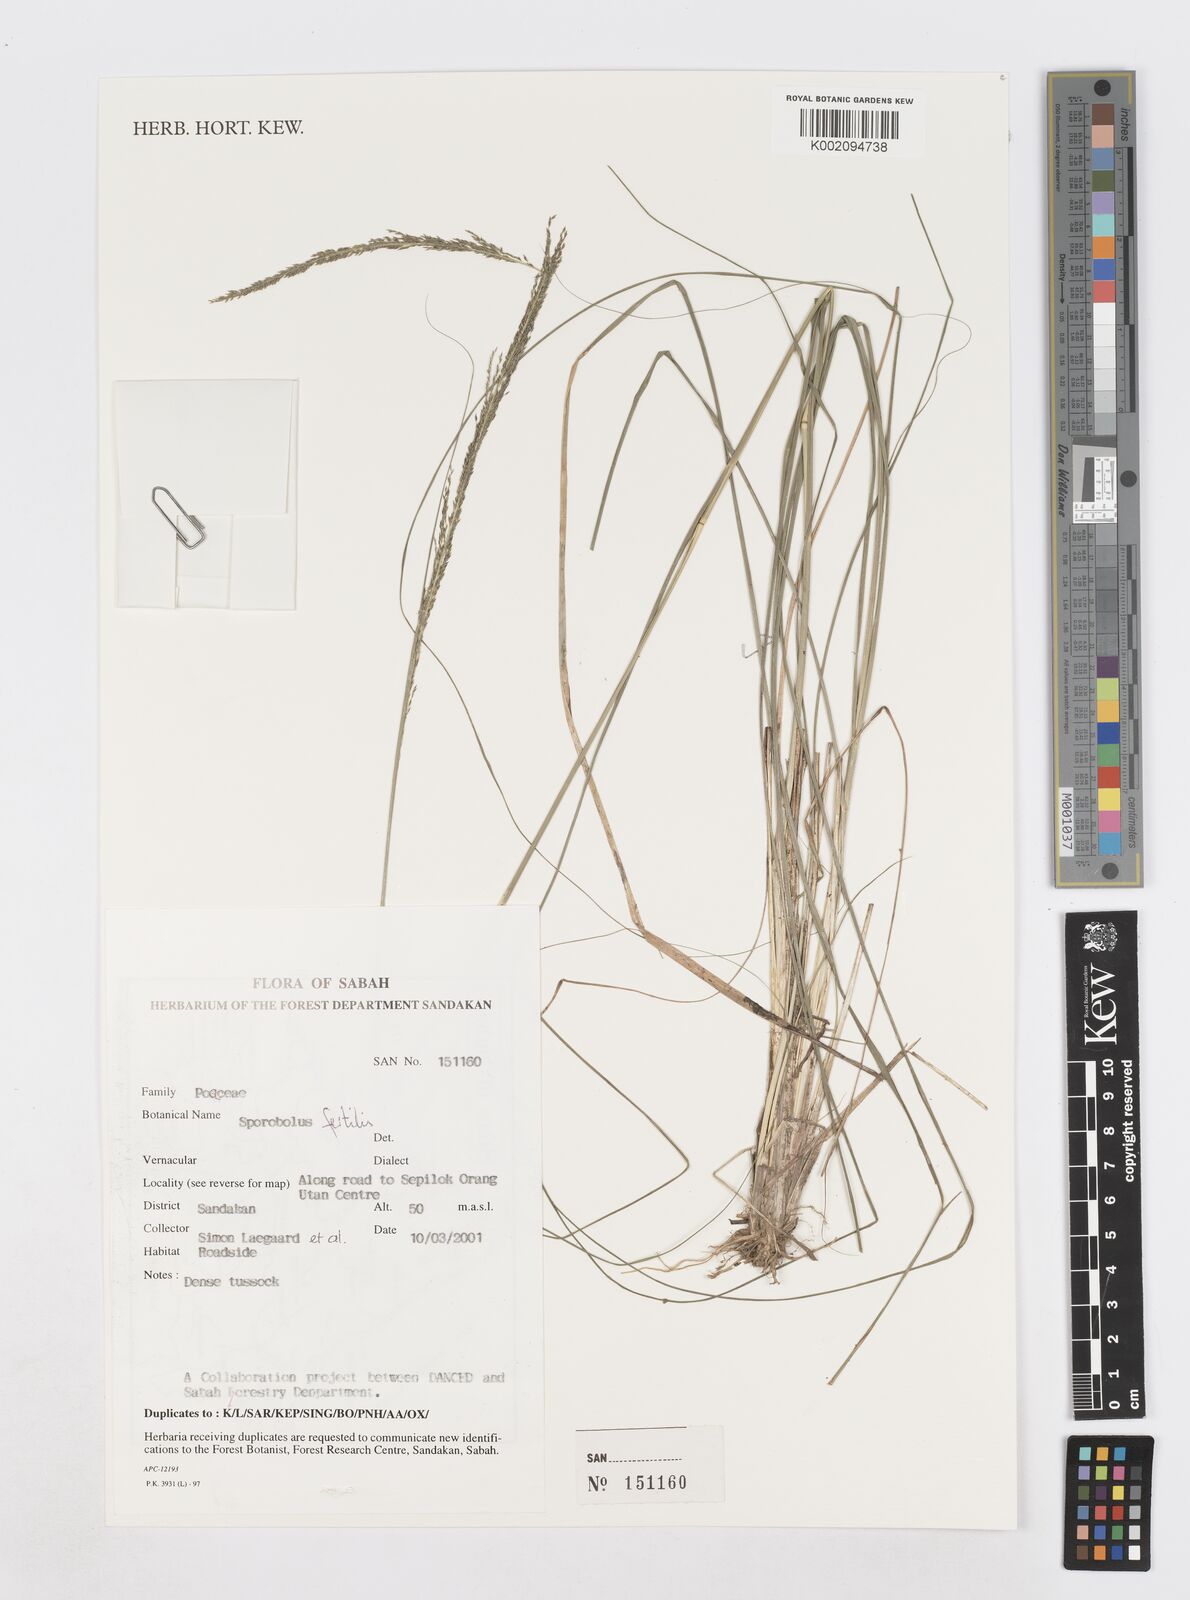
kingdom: Plantae
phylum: Tracheophyta
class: Liliopsida
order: Poales
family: Poaceae
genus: Sporobolus
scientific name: Sporobolus fertilis
